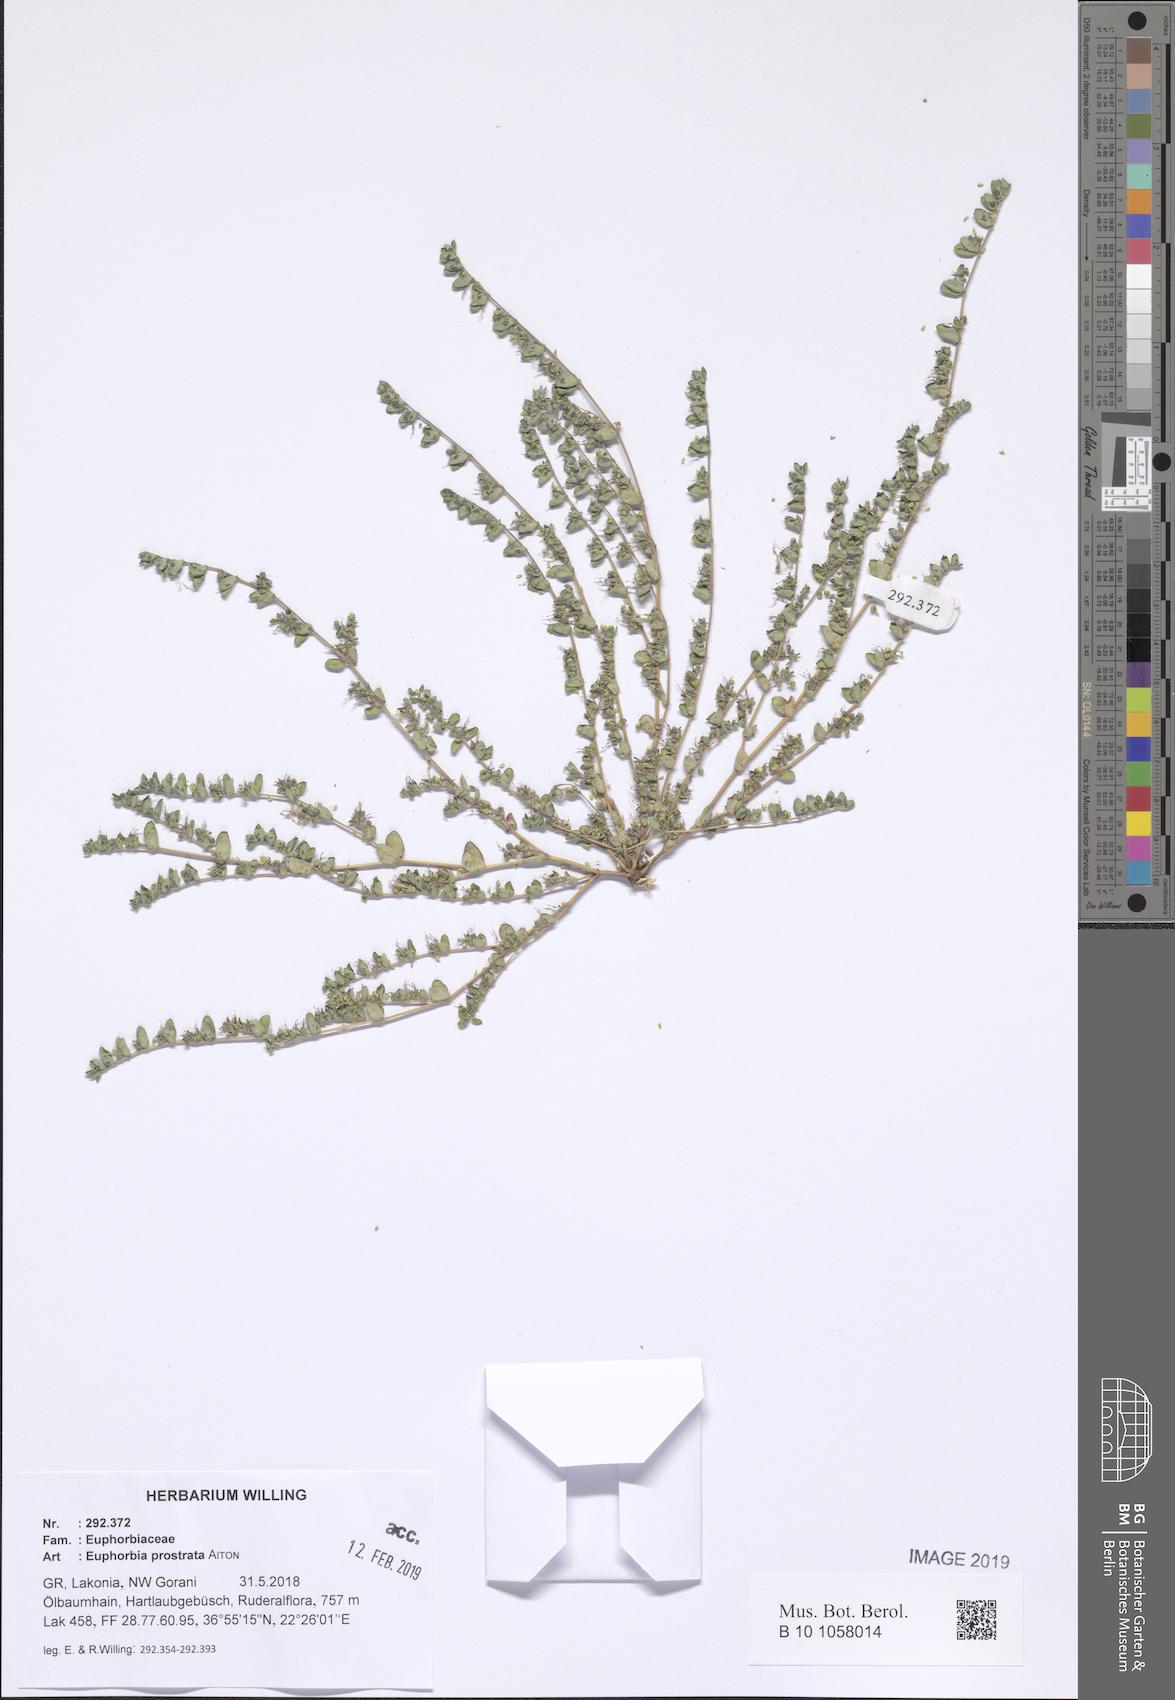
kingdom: Plantae
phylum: Tracheophyta
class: Magnoliopsida
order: Malpighiales
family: Euphorbiaceae
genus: Euphorbia
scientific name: Euphorbia prostrata
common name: Prostrate sandmat
